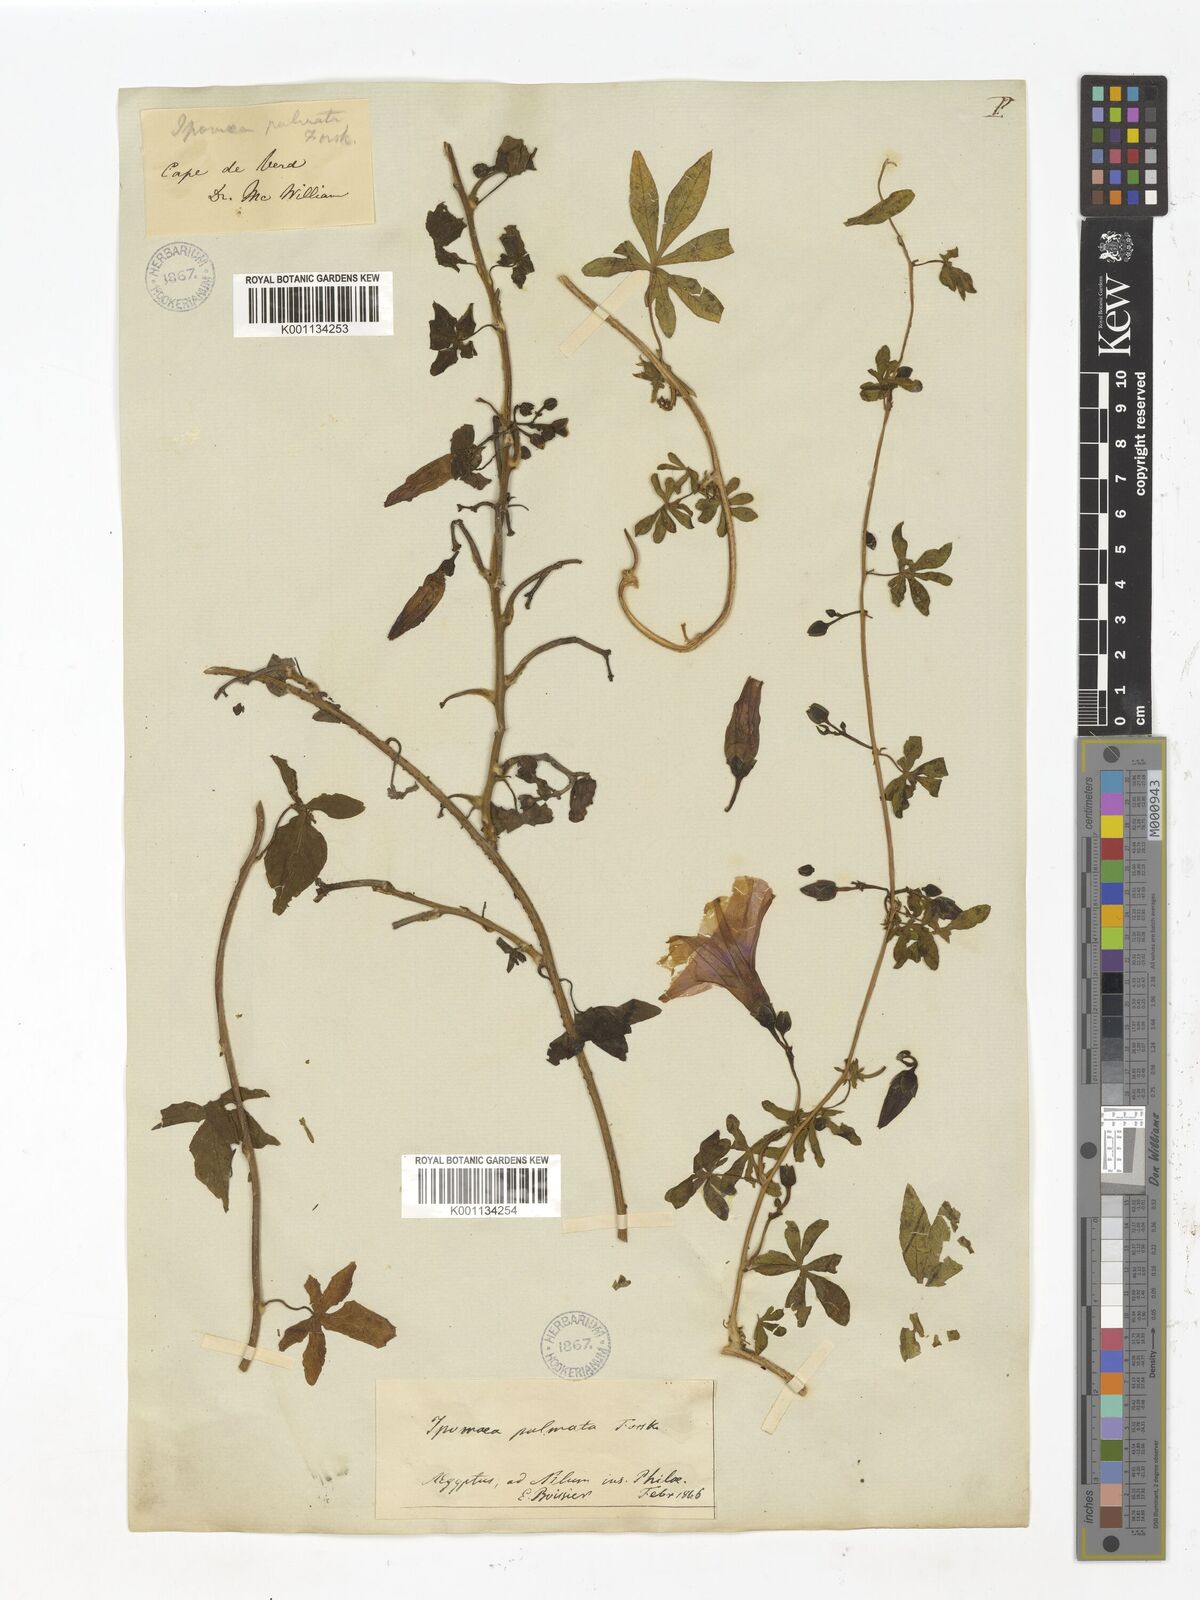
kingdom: Plantae
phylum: Tracheophyta
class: Magnoliopsida
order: Solanales
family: Convolvulaceae
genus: Ipomoea
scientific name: Ipomoea cairica
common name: Mile a minute vine
